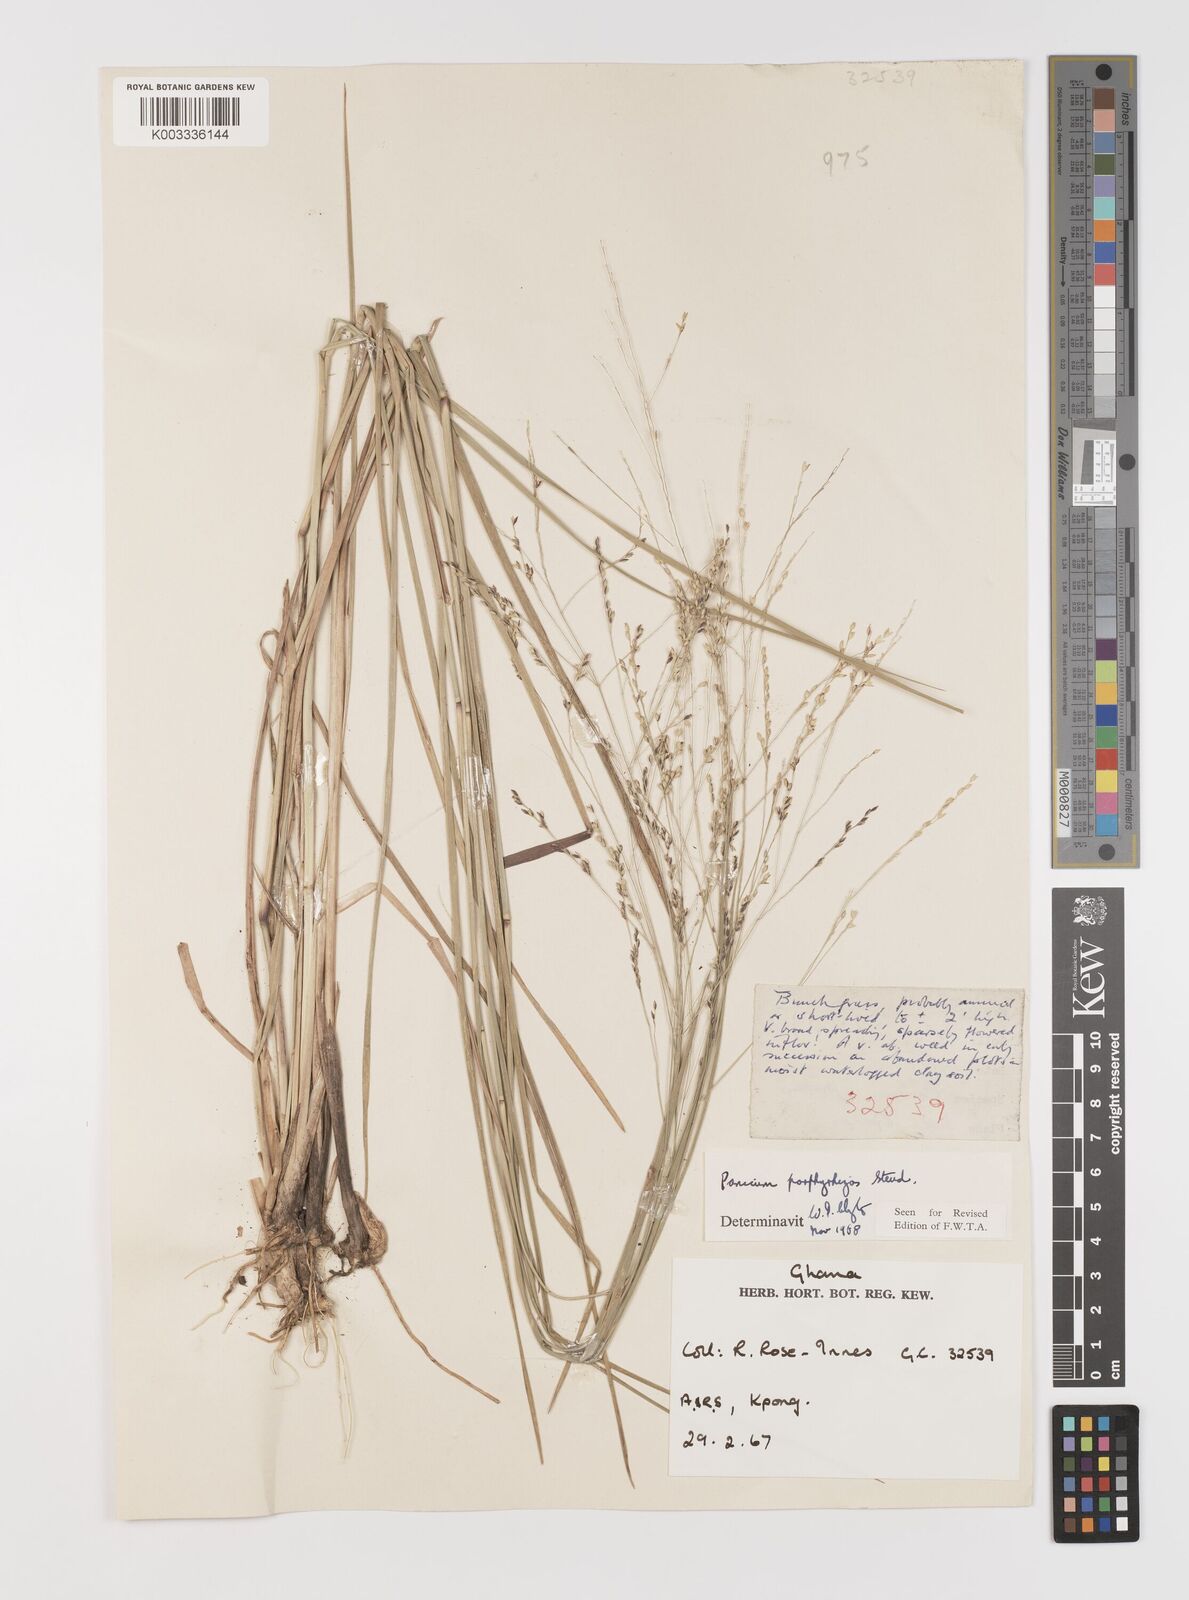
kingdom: Plantae
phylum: Tracheophyta
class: Liliopsida
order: Poales
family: Poaceae
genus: Panicum
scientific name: Panicum porphyrrhizos
